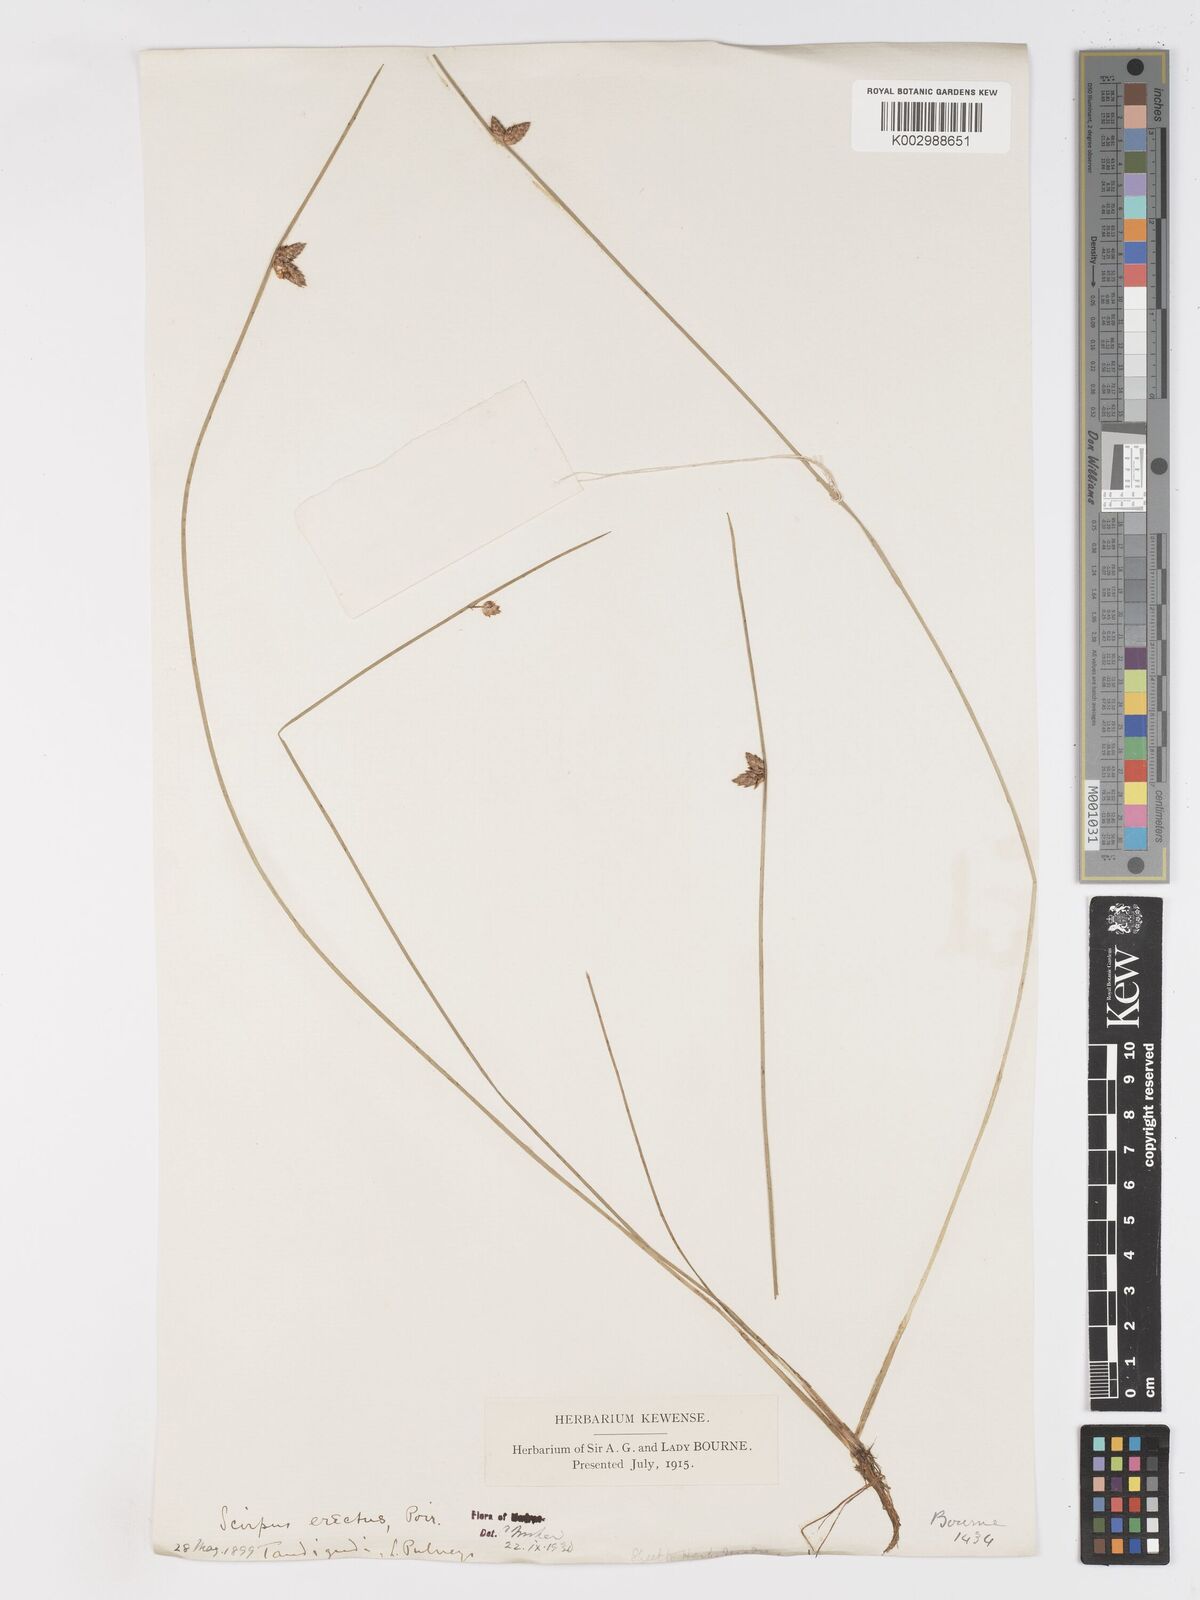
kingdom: Plantae
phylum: Tracheophyta
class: Liliopsida
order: Poales
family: Cyperaceae
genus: Schoenoplectiella
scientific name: Schoenoplectiella juncoides
